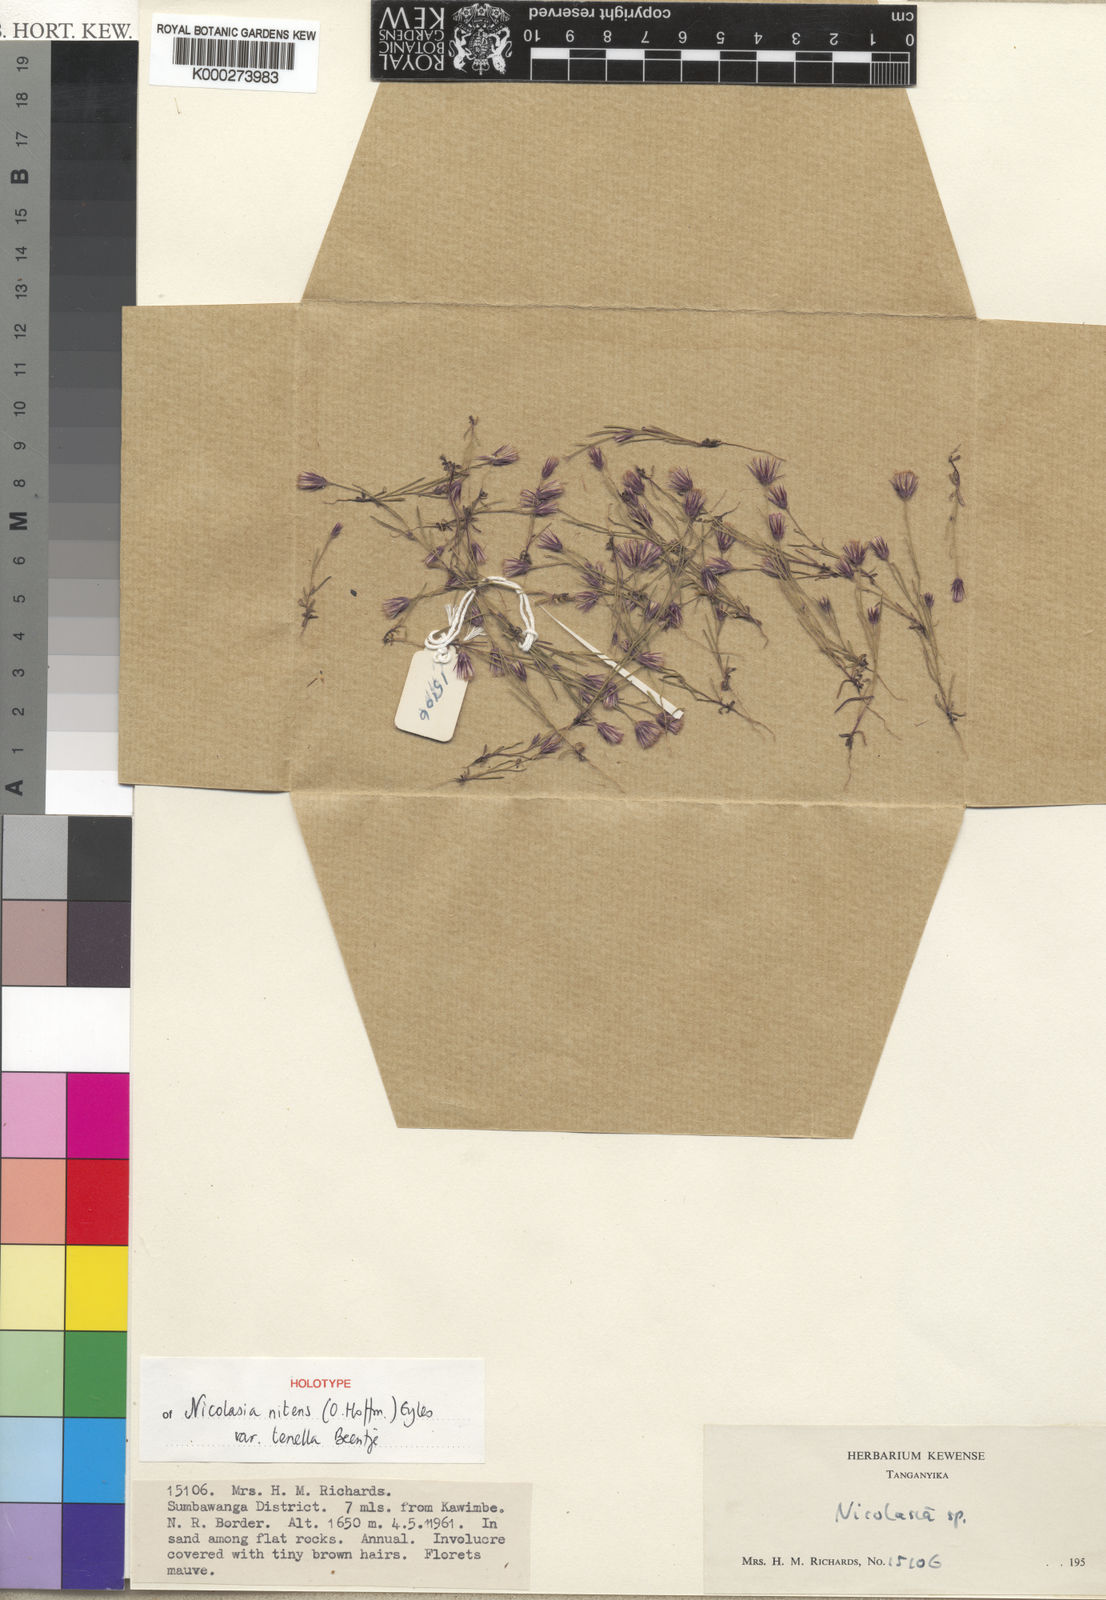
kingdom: Plantae
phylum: Tracheophyta
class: Magnoliopsida
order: Asterales
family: Asteraceae
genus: Nicolasia
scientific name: Nicolasia nitens
